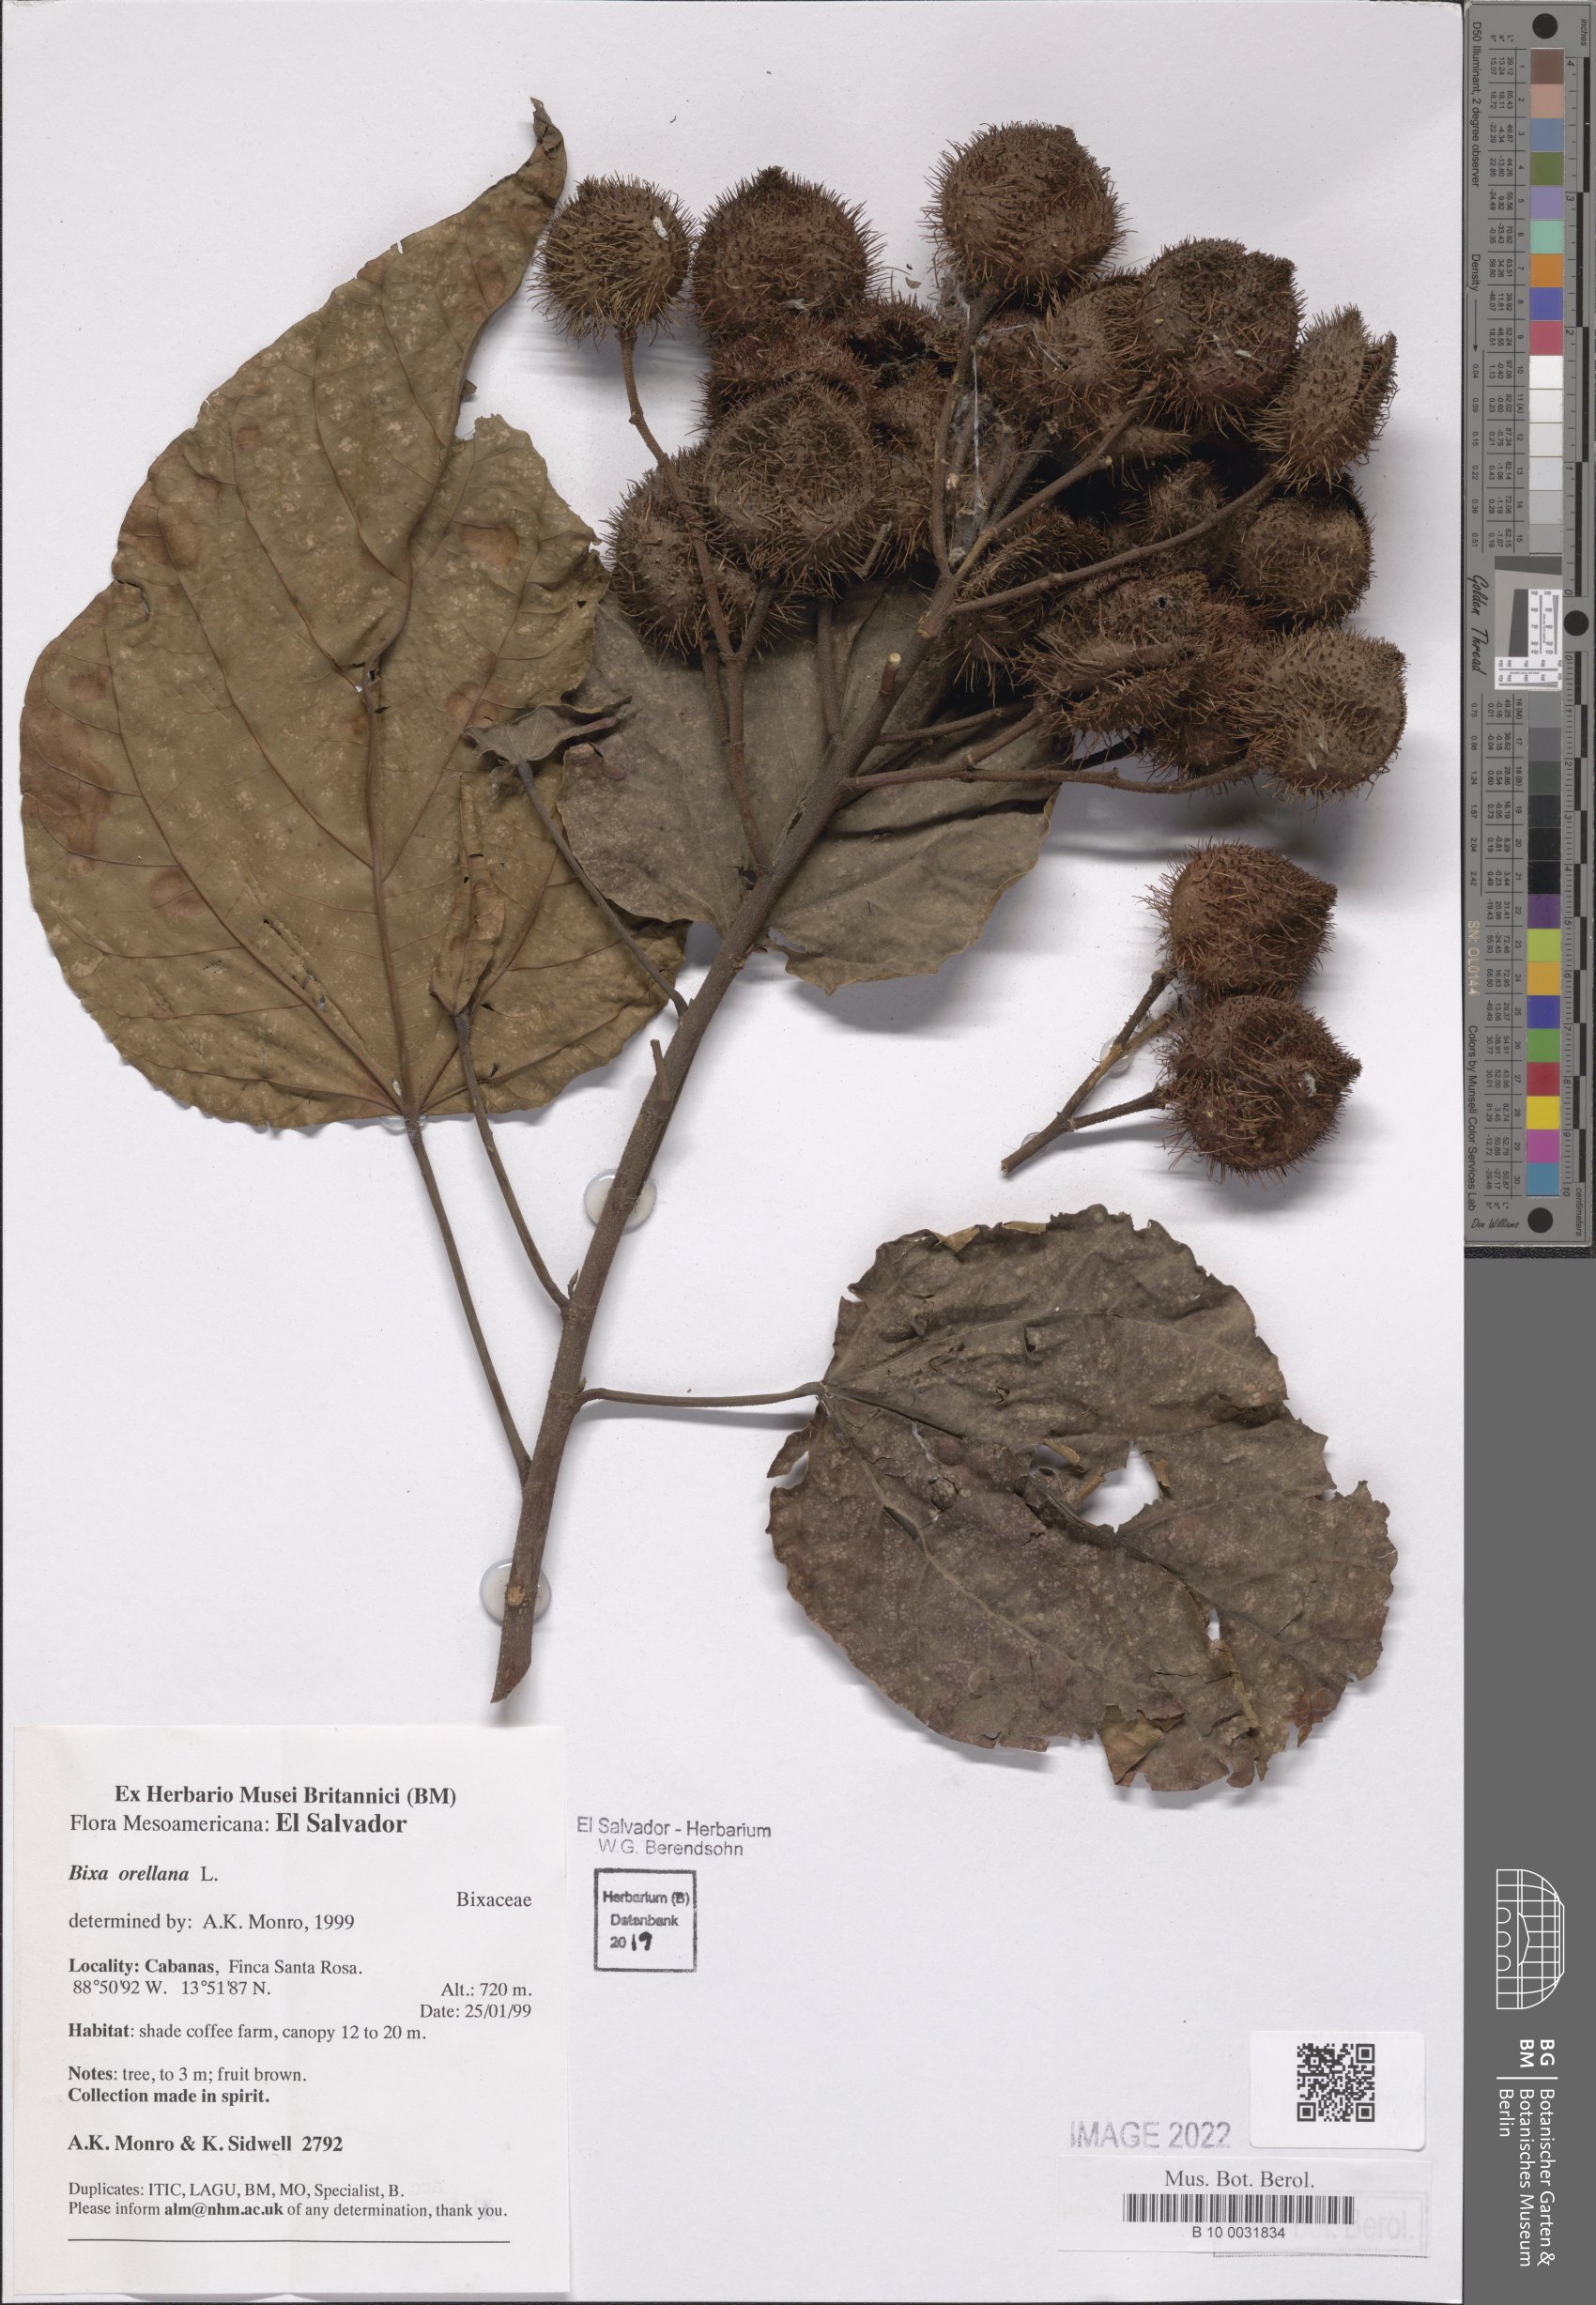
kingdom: Plantae
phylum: Tracheophyta
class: Magnoliopsida
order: Malvales
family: Bixaceae
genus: Bixa
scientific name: Bixa orellana
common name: Lipsticktree
